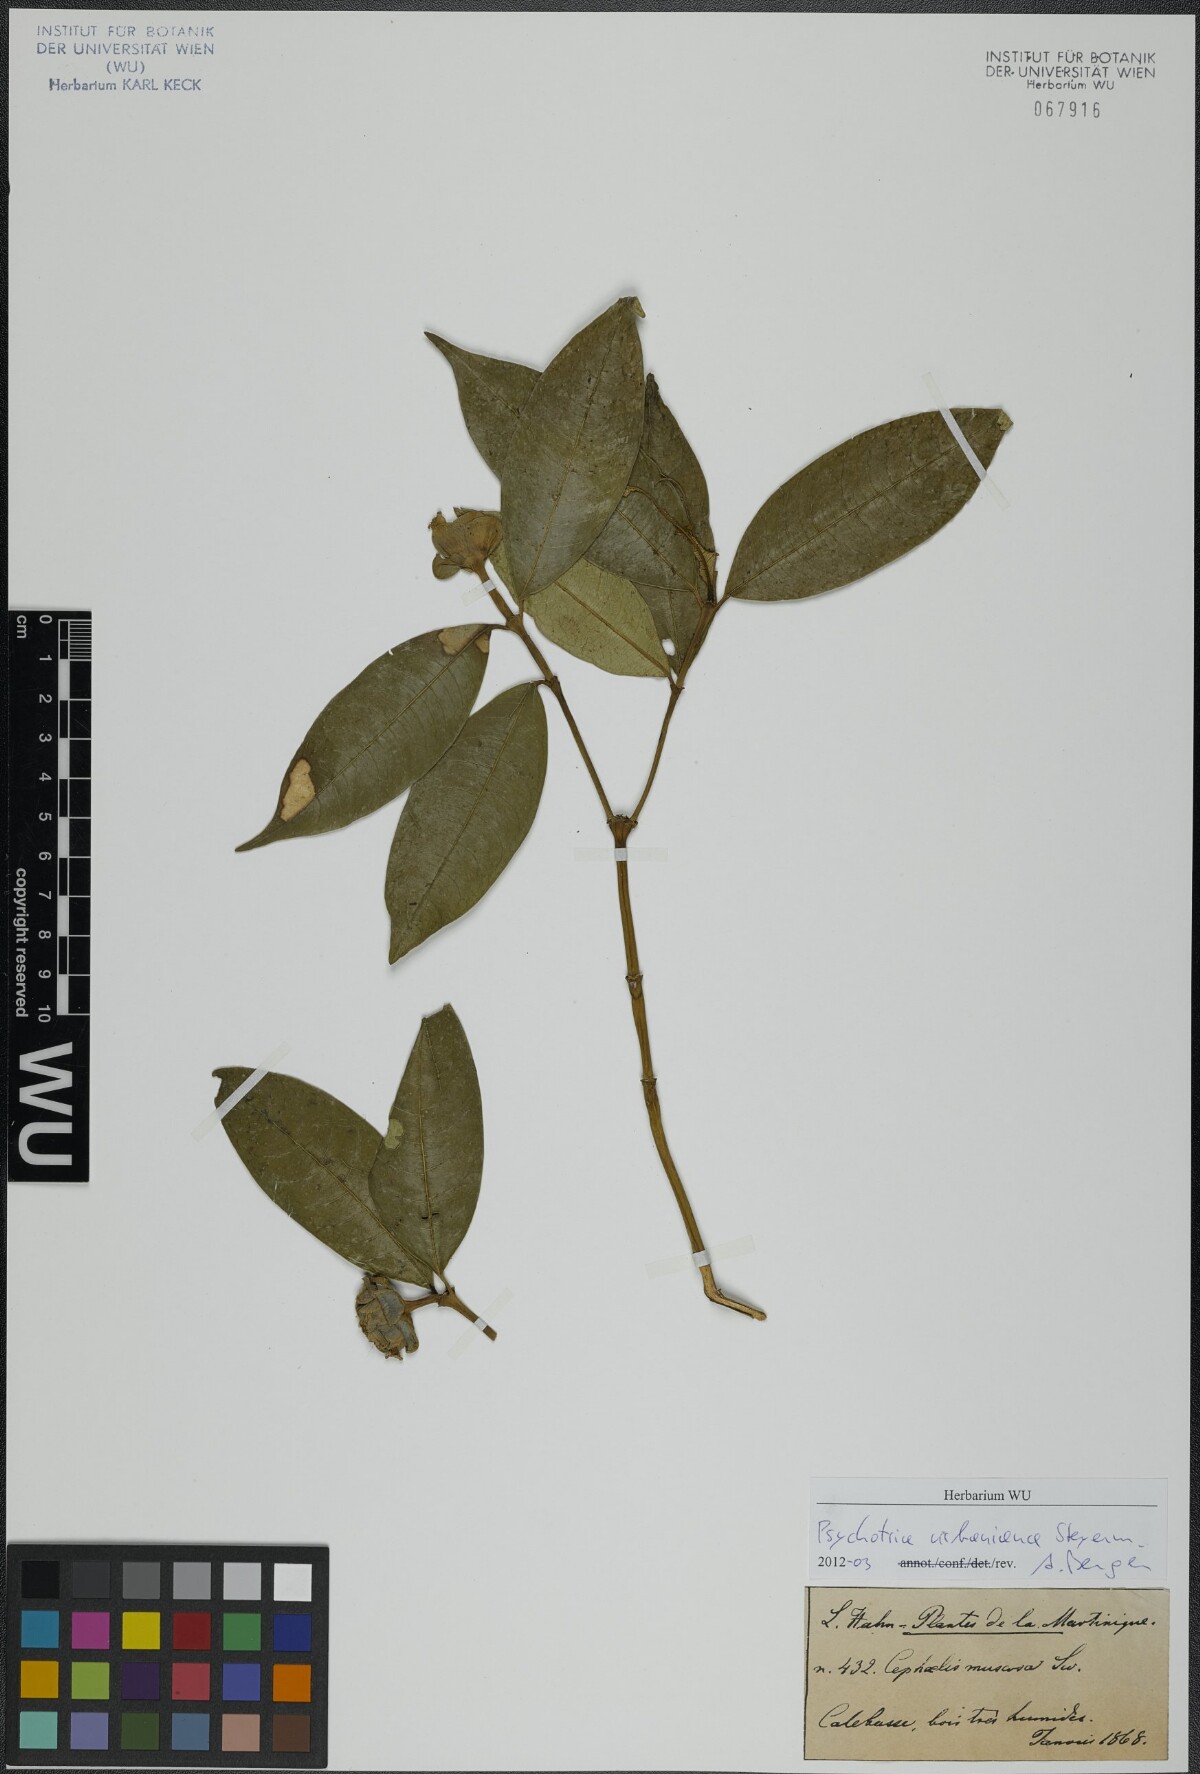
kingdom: Plantae
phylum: Tracheophyta
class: Magnoliopsida
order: Gentianales
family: Rubiaceae
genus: Psychotria
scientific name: Psychotria urbaniana
